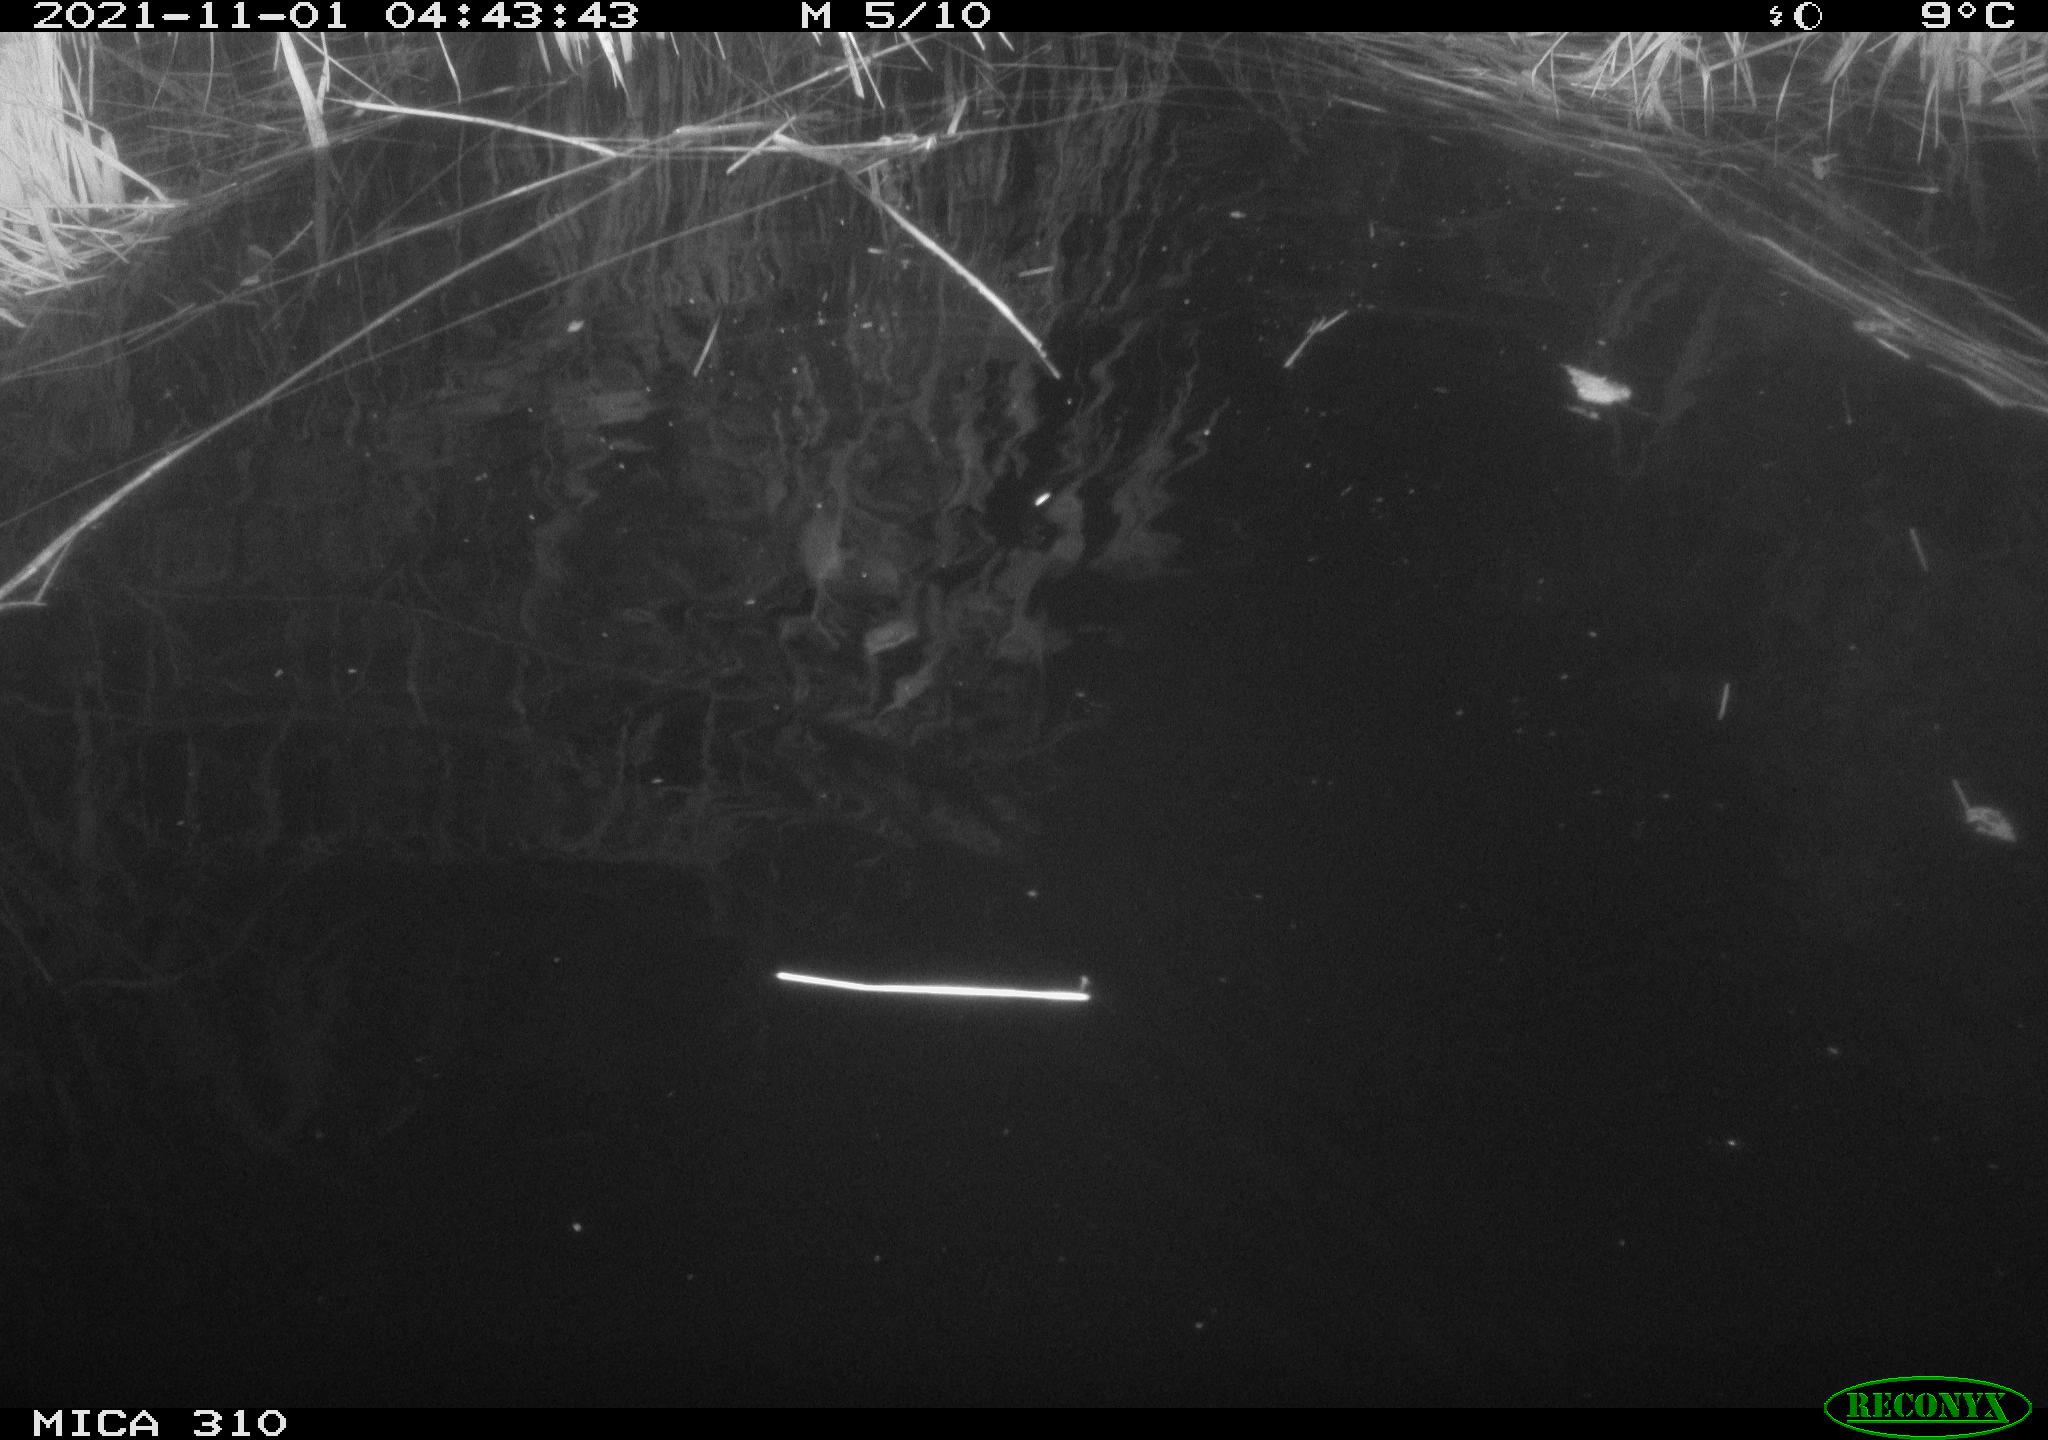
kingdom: Animalia
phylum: Chordata
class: Mammalia
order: Rodentia
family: Muridae
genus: Rattus
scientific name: Rattus norvegicus
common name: Brown rat
